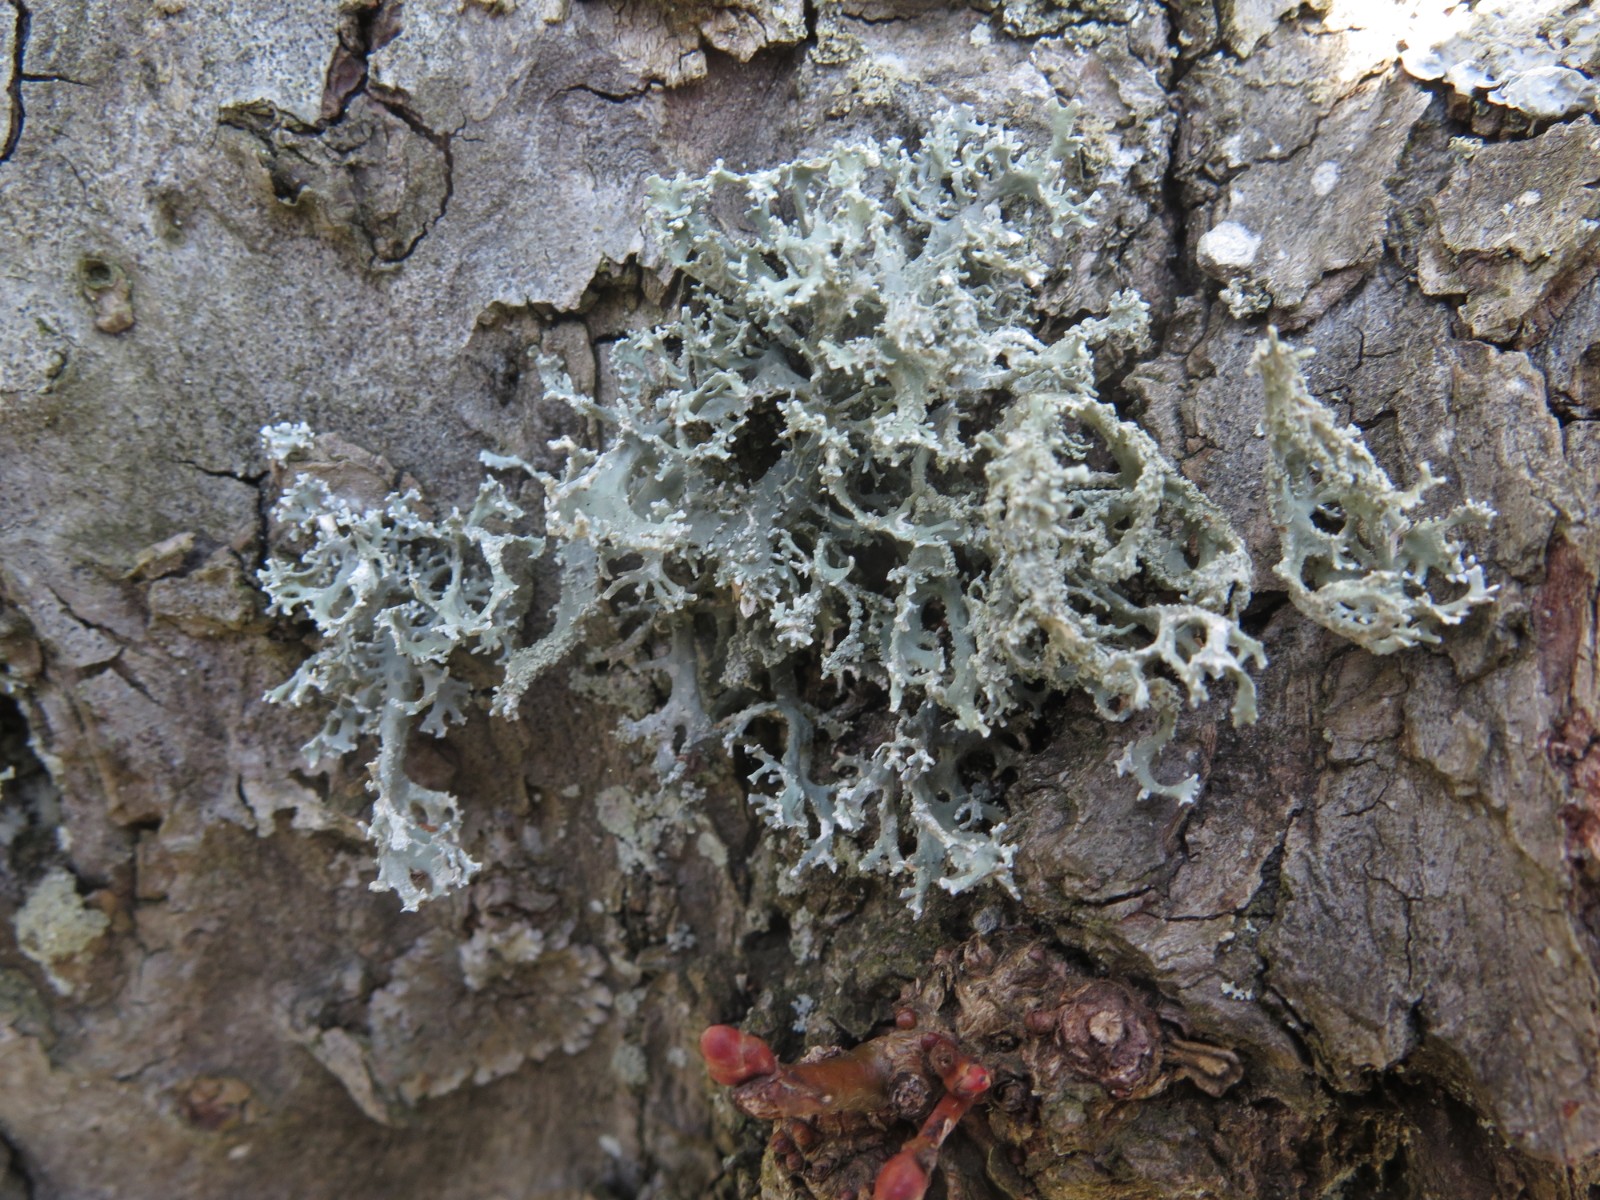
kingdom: Fungi
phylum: Ascomycota
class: Lecanoromycetes
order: Lecanorales
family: Parmeliaceae
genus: Evernia
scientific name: Evernia prunastri
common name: almindelig slåenlav
